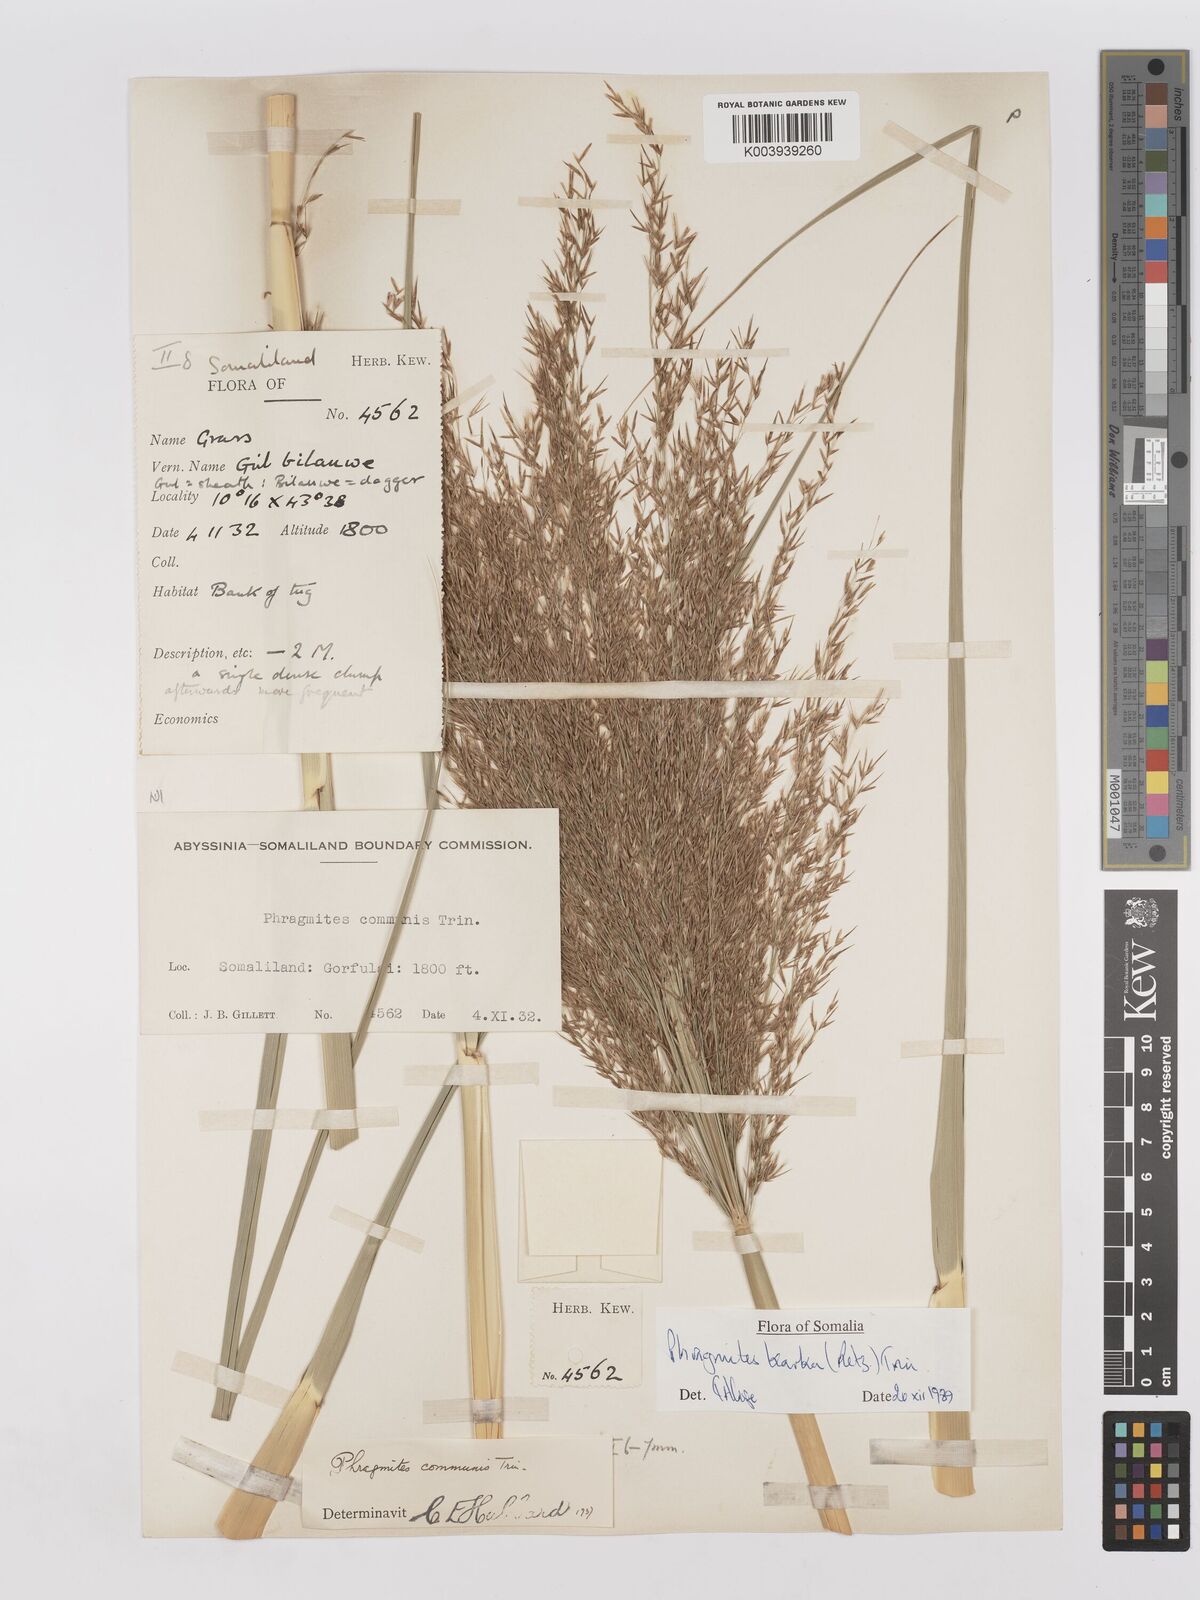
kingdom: Plantae
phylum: Tracheophyta
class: Liliopsida
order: Poales
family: Poaceae
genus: Phragmites
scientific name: Phragmites karka
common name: Tropical reed
